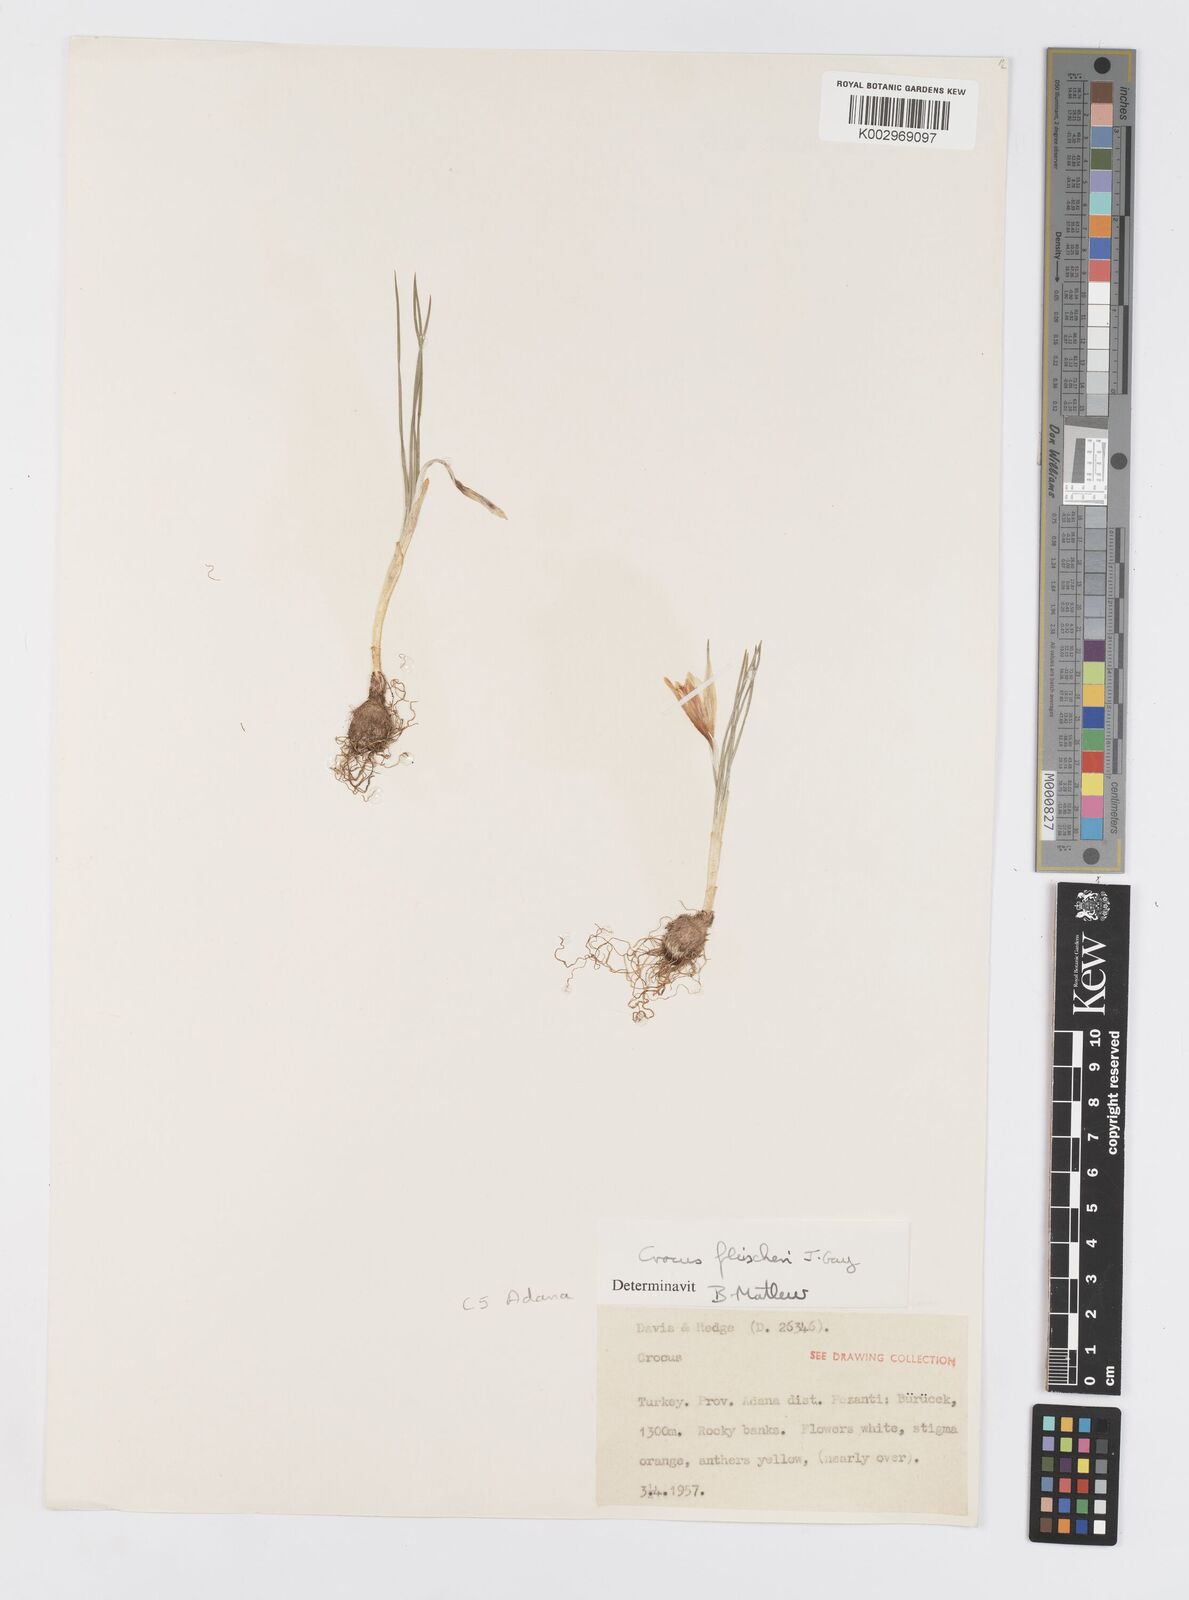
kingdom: Plantae
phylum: Tracheophyta
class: Liliopsida
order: Asparagales
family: Iridaceae
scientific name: Iridaceae
